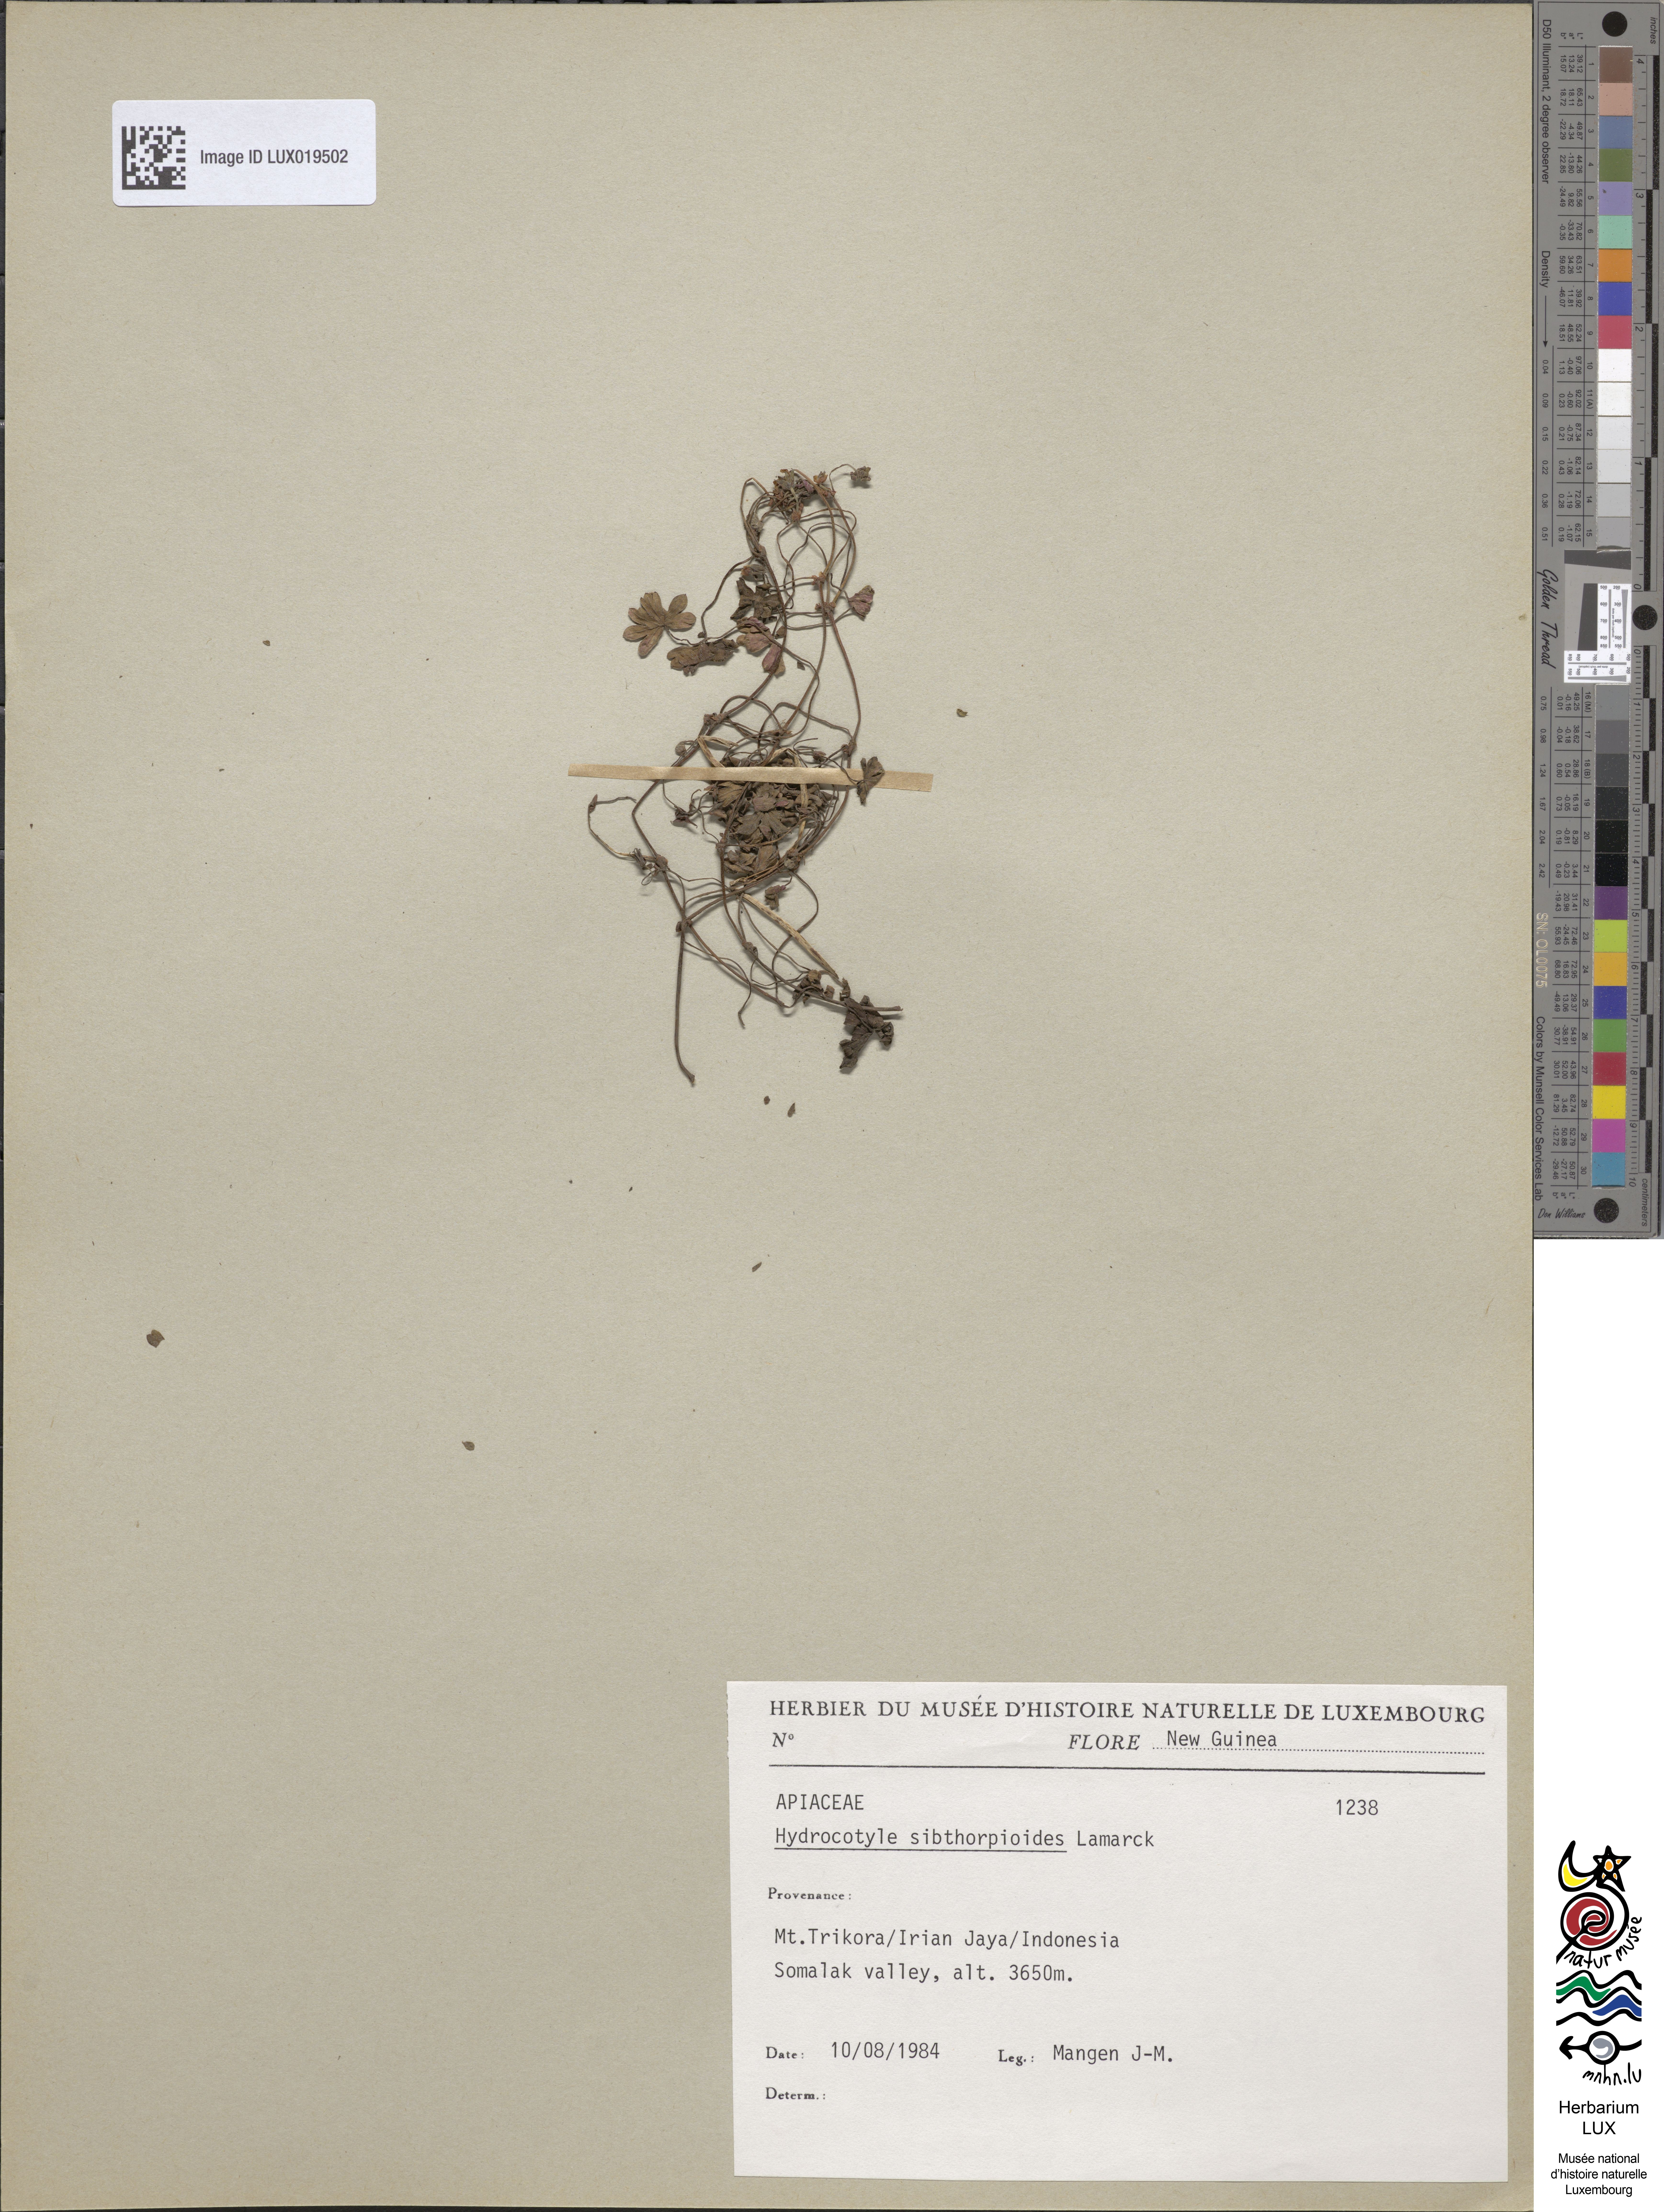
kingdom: Plantae
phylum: Tracheophyta
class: Magnoliopsida
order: Apiales
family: Araliaceae
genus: Hydrocotyle
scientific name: Hydrocotyle sibthorpioides
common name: Lawn marshpennywort
